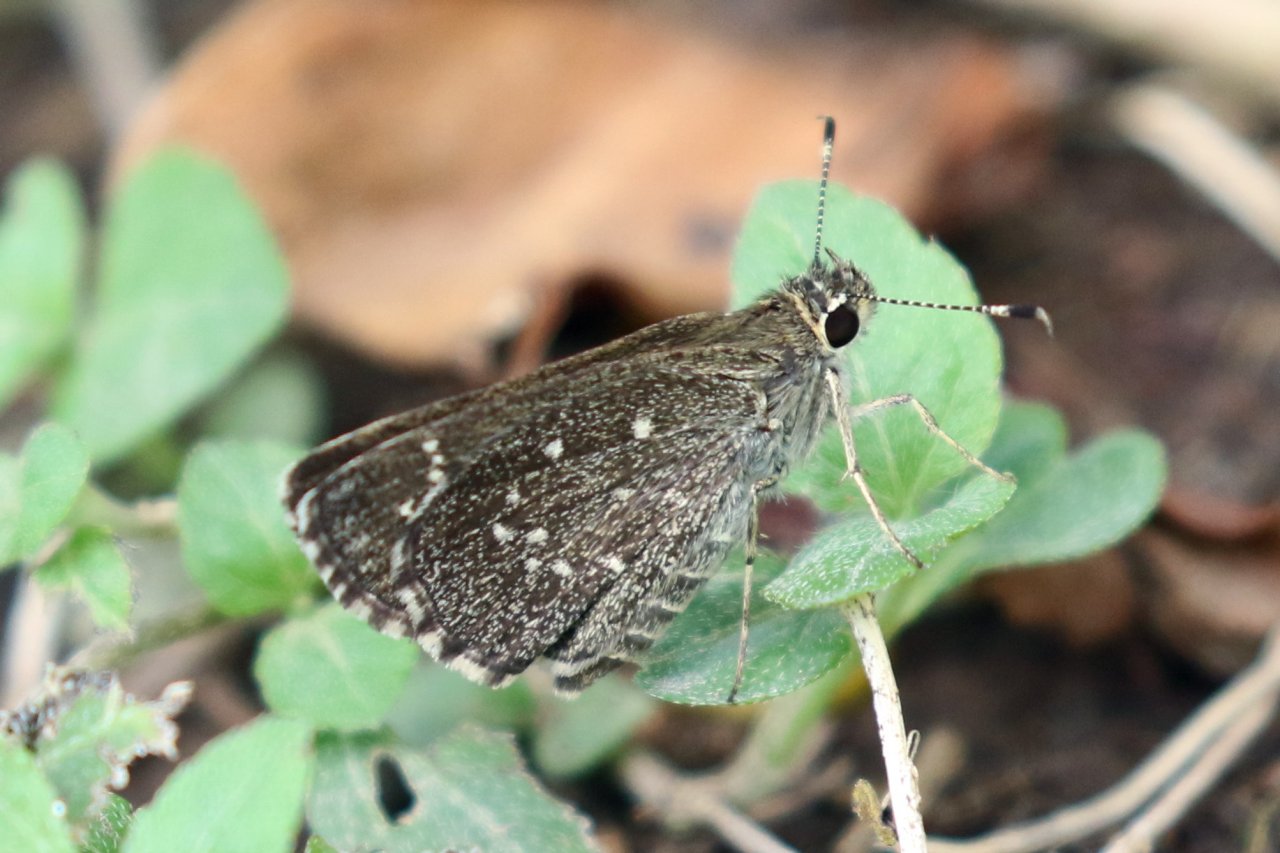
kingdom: Animalia
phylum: Arthropoda
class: Insecta
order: Lepidoptera
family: Hesperiidae
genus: Mastor
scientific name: Mastor celia
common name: Celia's Roadside-Skipper
